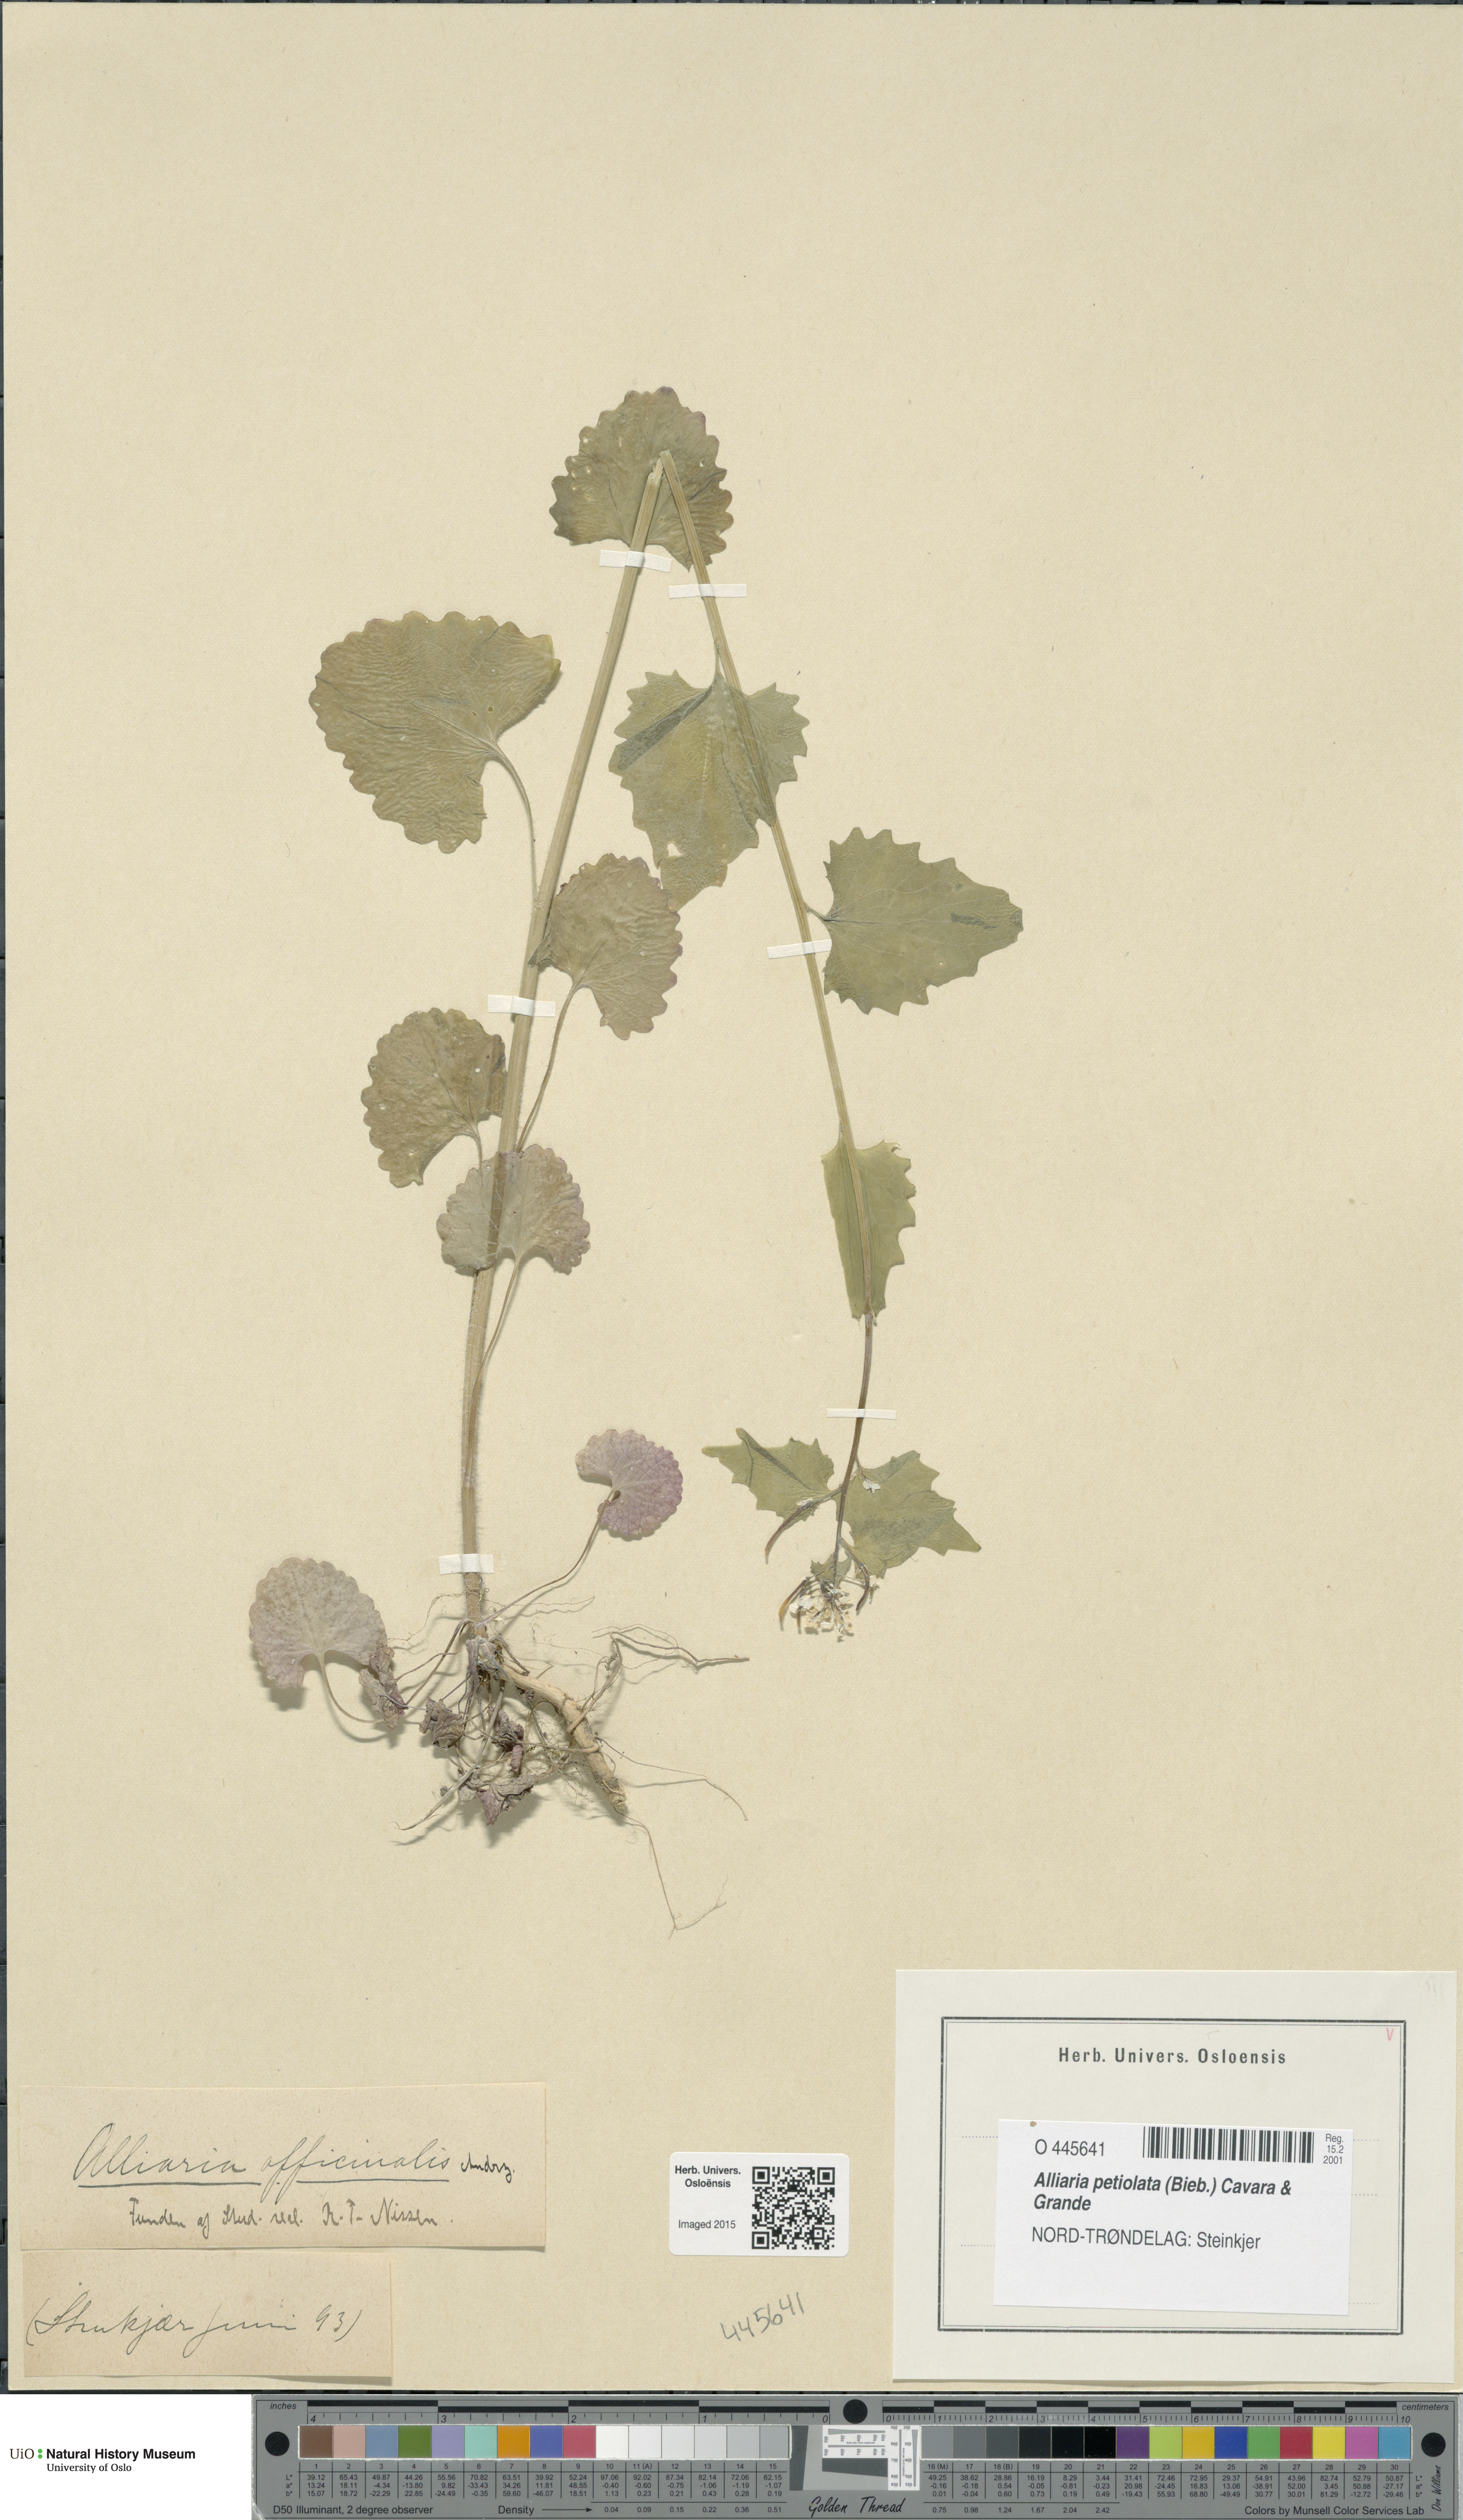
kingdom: Plantae
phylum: Tracheophyta
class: Magnoliopsida
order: Brassicales
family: Brassicaceae
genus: Alliaria
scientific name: Alliaria petiolata
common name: Garlic mustard
